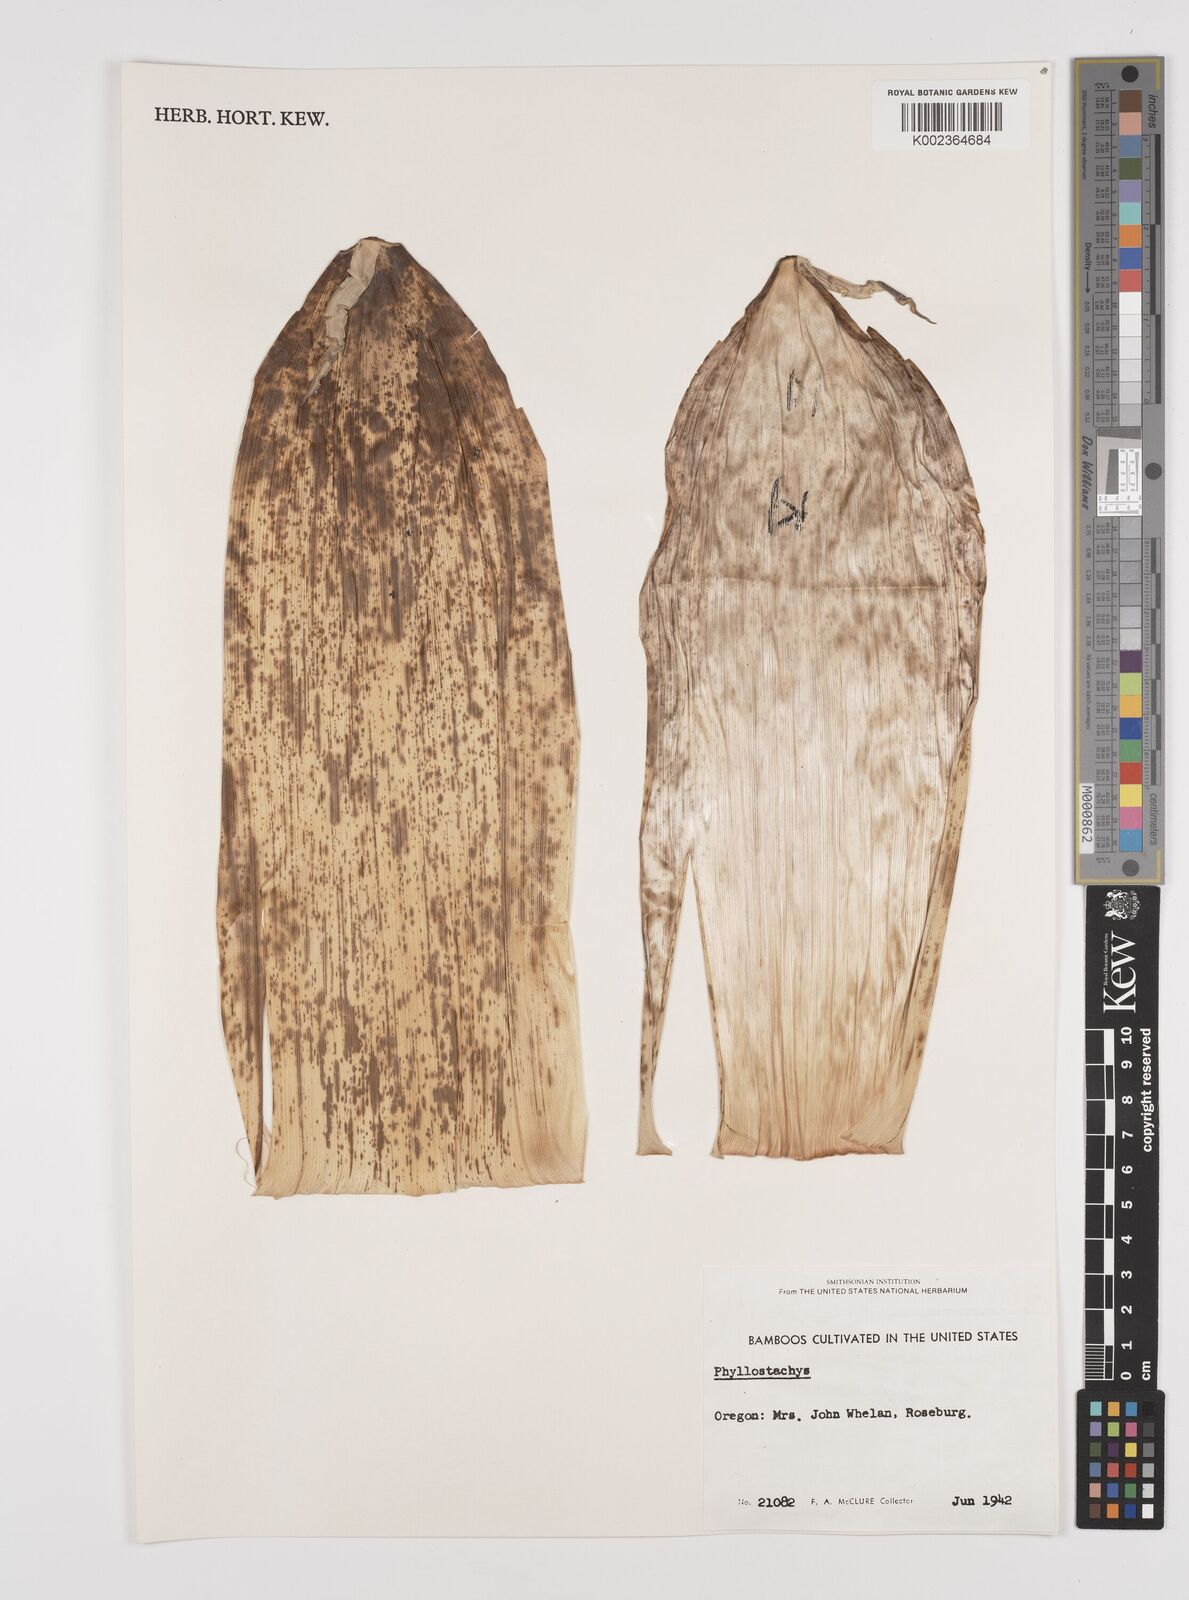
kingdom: Plantae
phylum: Tracheophyta
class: Liliopsida
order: Poales
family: Poaceae
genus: Phyllostachys
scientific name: Phyllostachys
